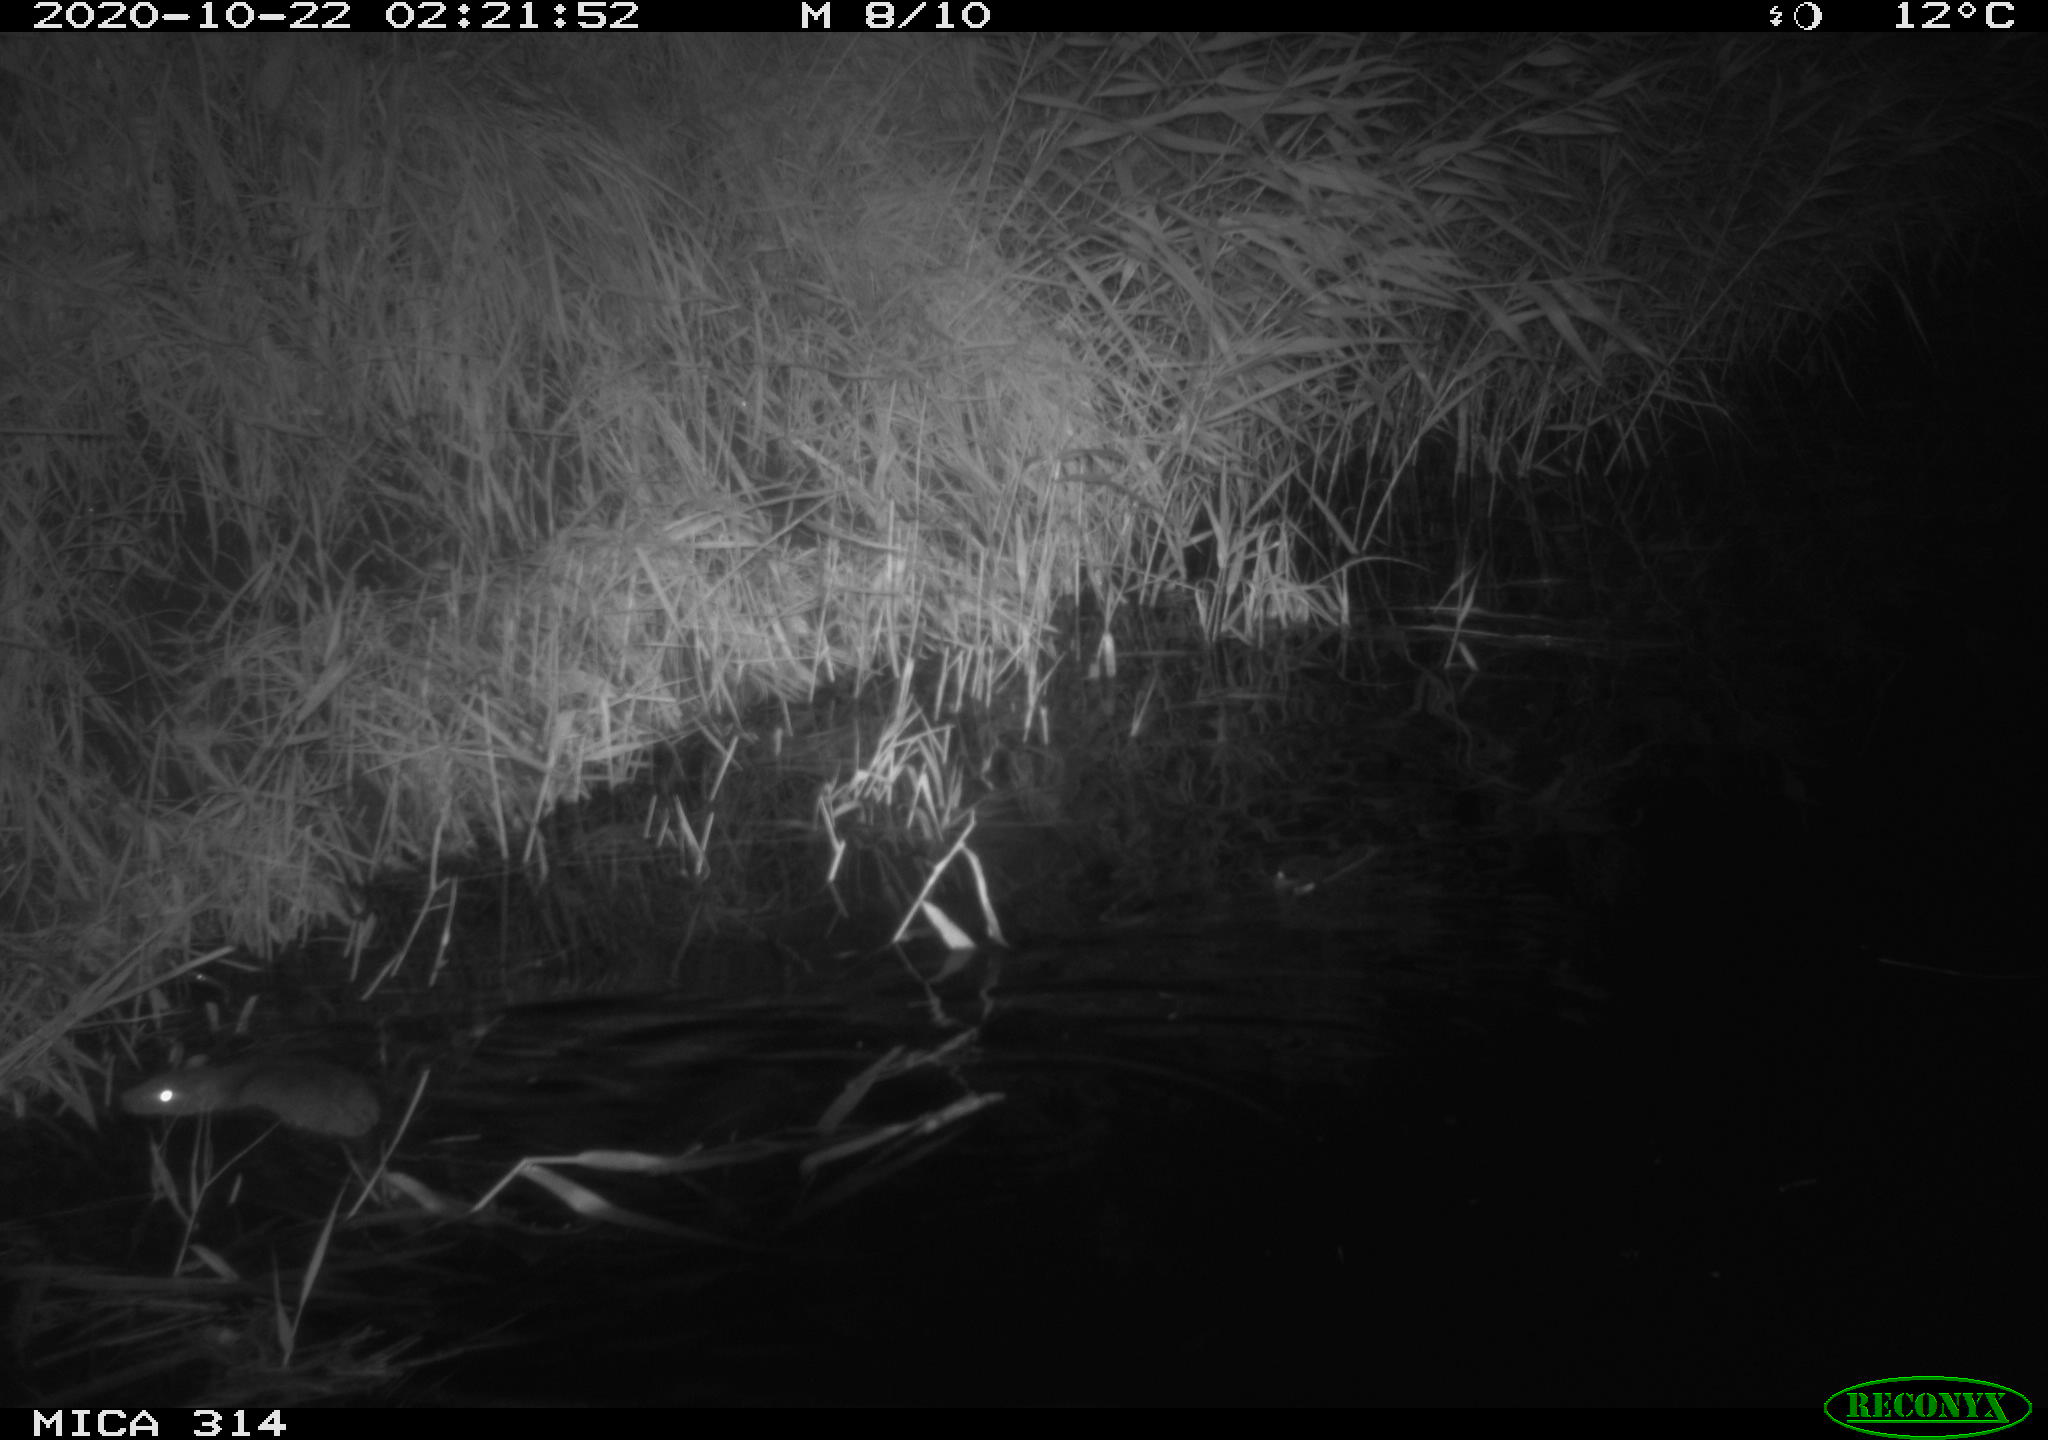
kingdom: Animalia
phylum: Chordata
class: Mammalia
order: Rodentia
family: Muridae
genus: Rattus
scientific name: Rattus norvegicus
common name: Brown rat
